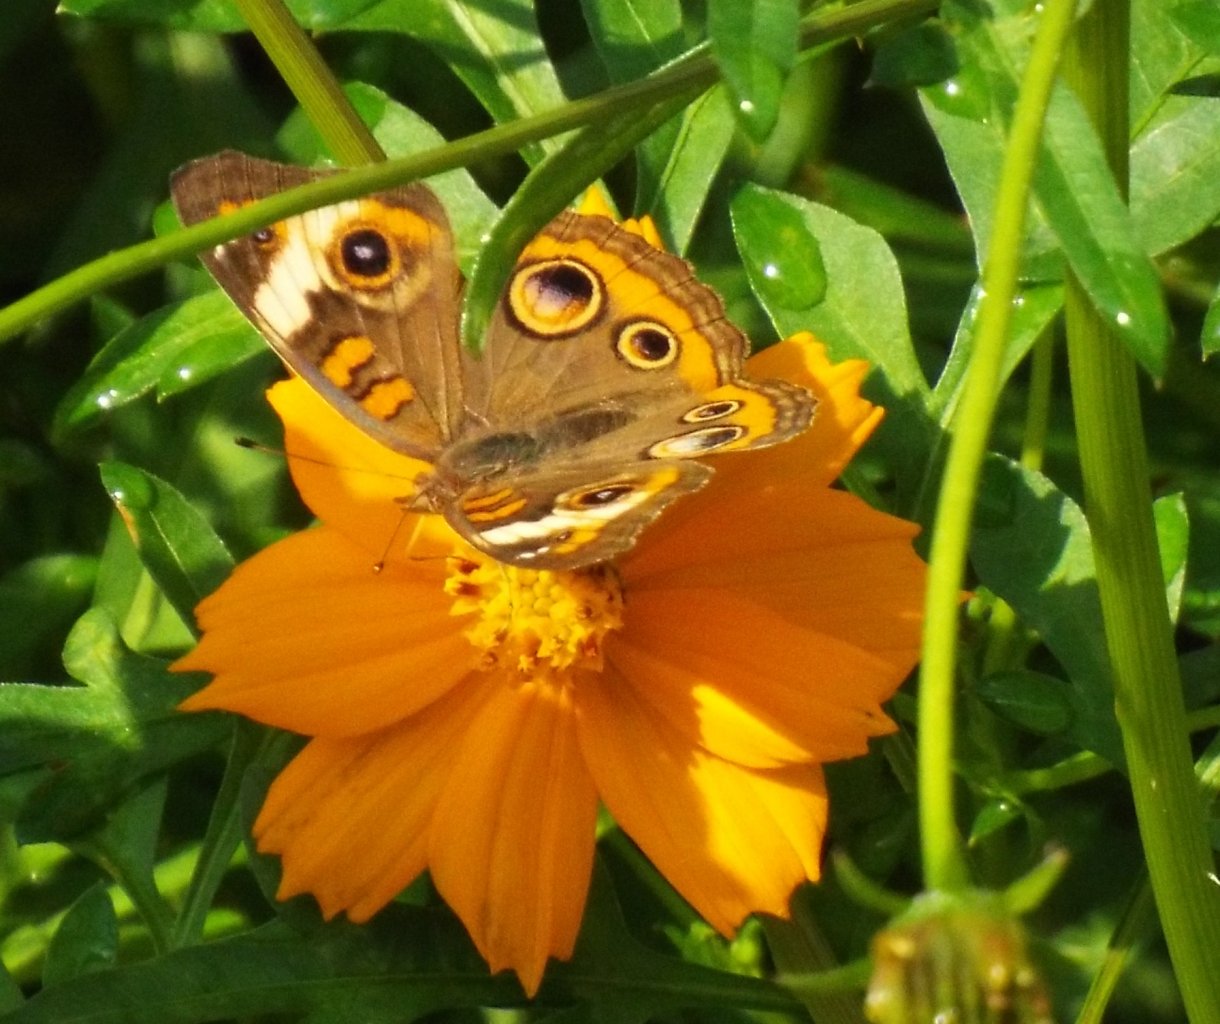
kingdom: Animalia
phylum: Arthropoda
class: Insecta
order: Lepidoptera
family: Nymphalidae
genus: Junonia
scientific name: Junonia coenia
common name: Common Buckeye
